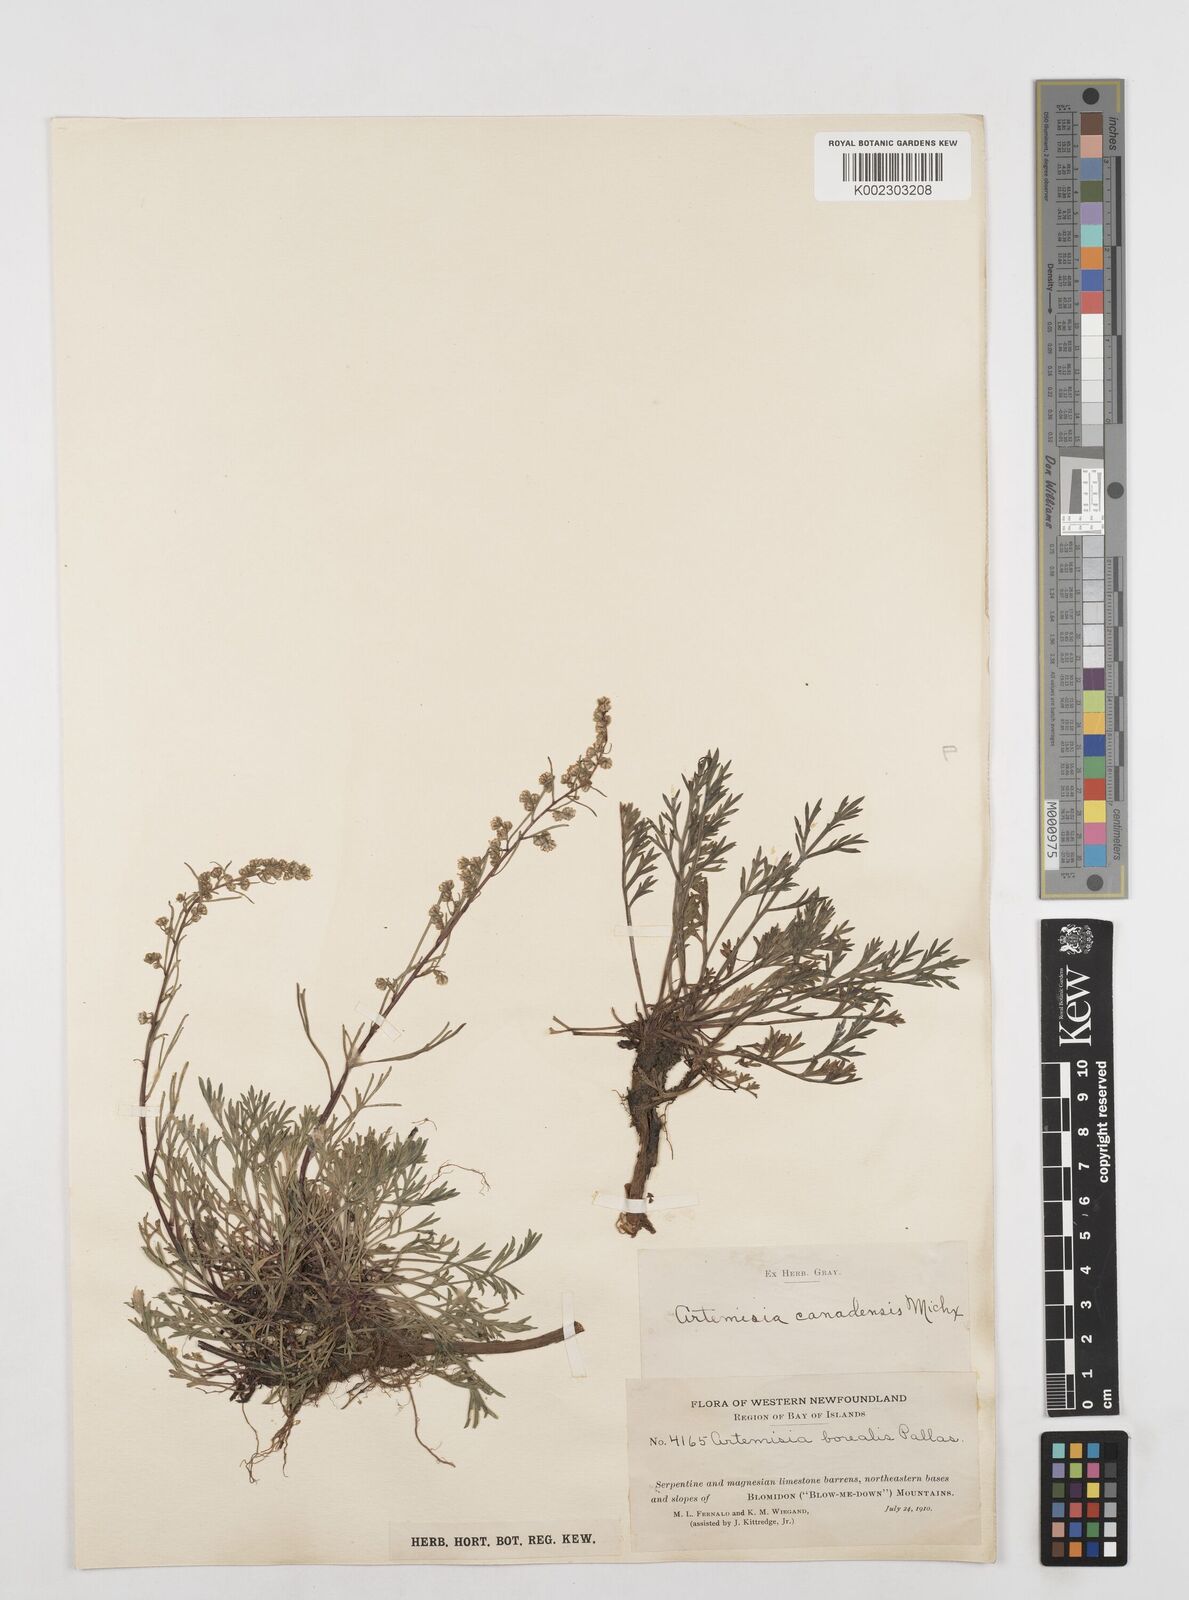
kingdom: Plantae
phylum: Tracheophyta
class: Magnoliopsida
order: Asterales
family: Asteraceae
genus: Artemisia
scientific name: Artemisia campestris
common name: Field wormwood
